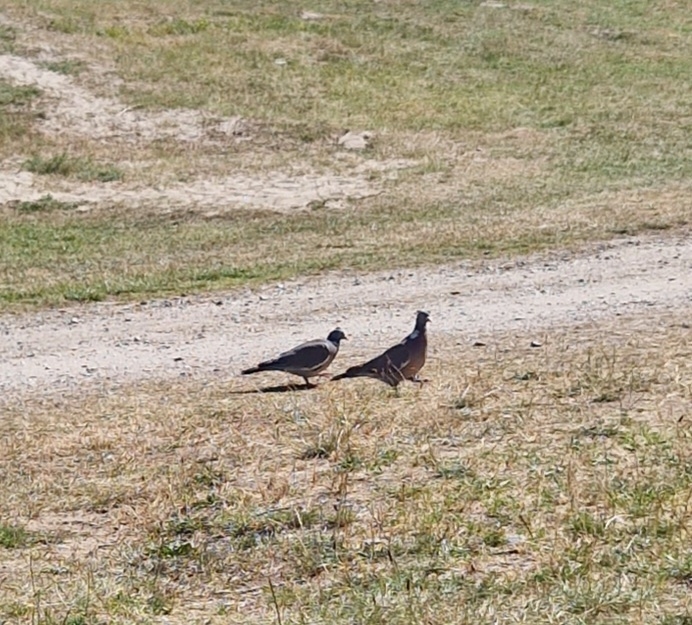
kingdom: Animalia
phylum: Chordata
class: Aves
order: Columbiformes
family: Columbidae
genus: Columba
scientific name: Columba palumbus
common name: Ringdue
